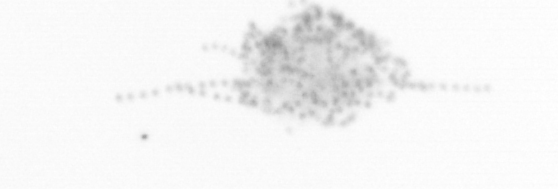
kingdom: Chromista
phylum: Ochrophyta
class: Bacillariophyceae
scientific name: Bacillariophyceae
